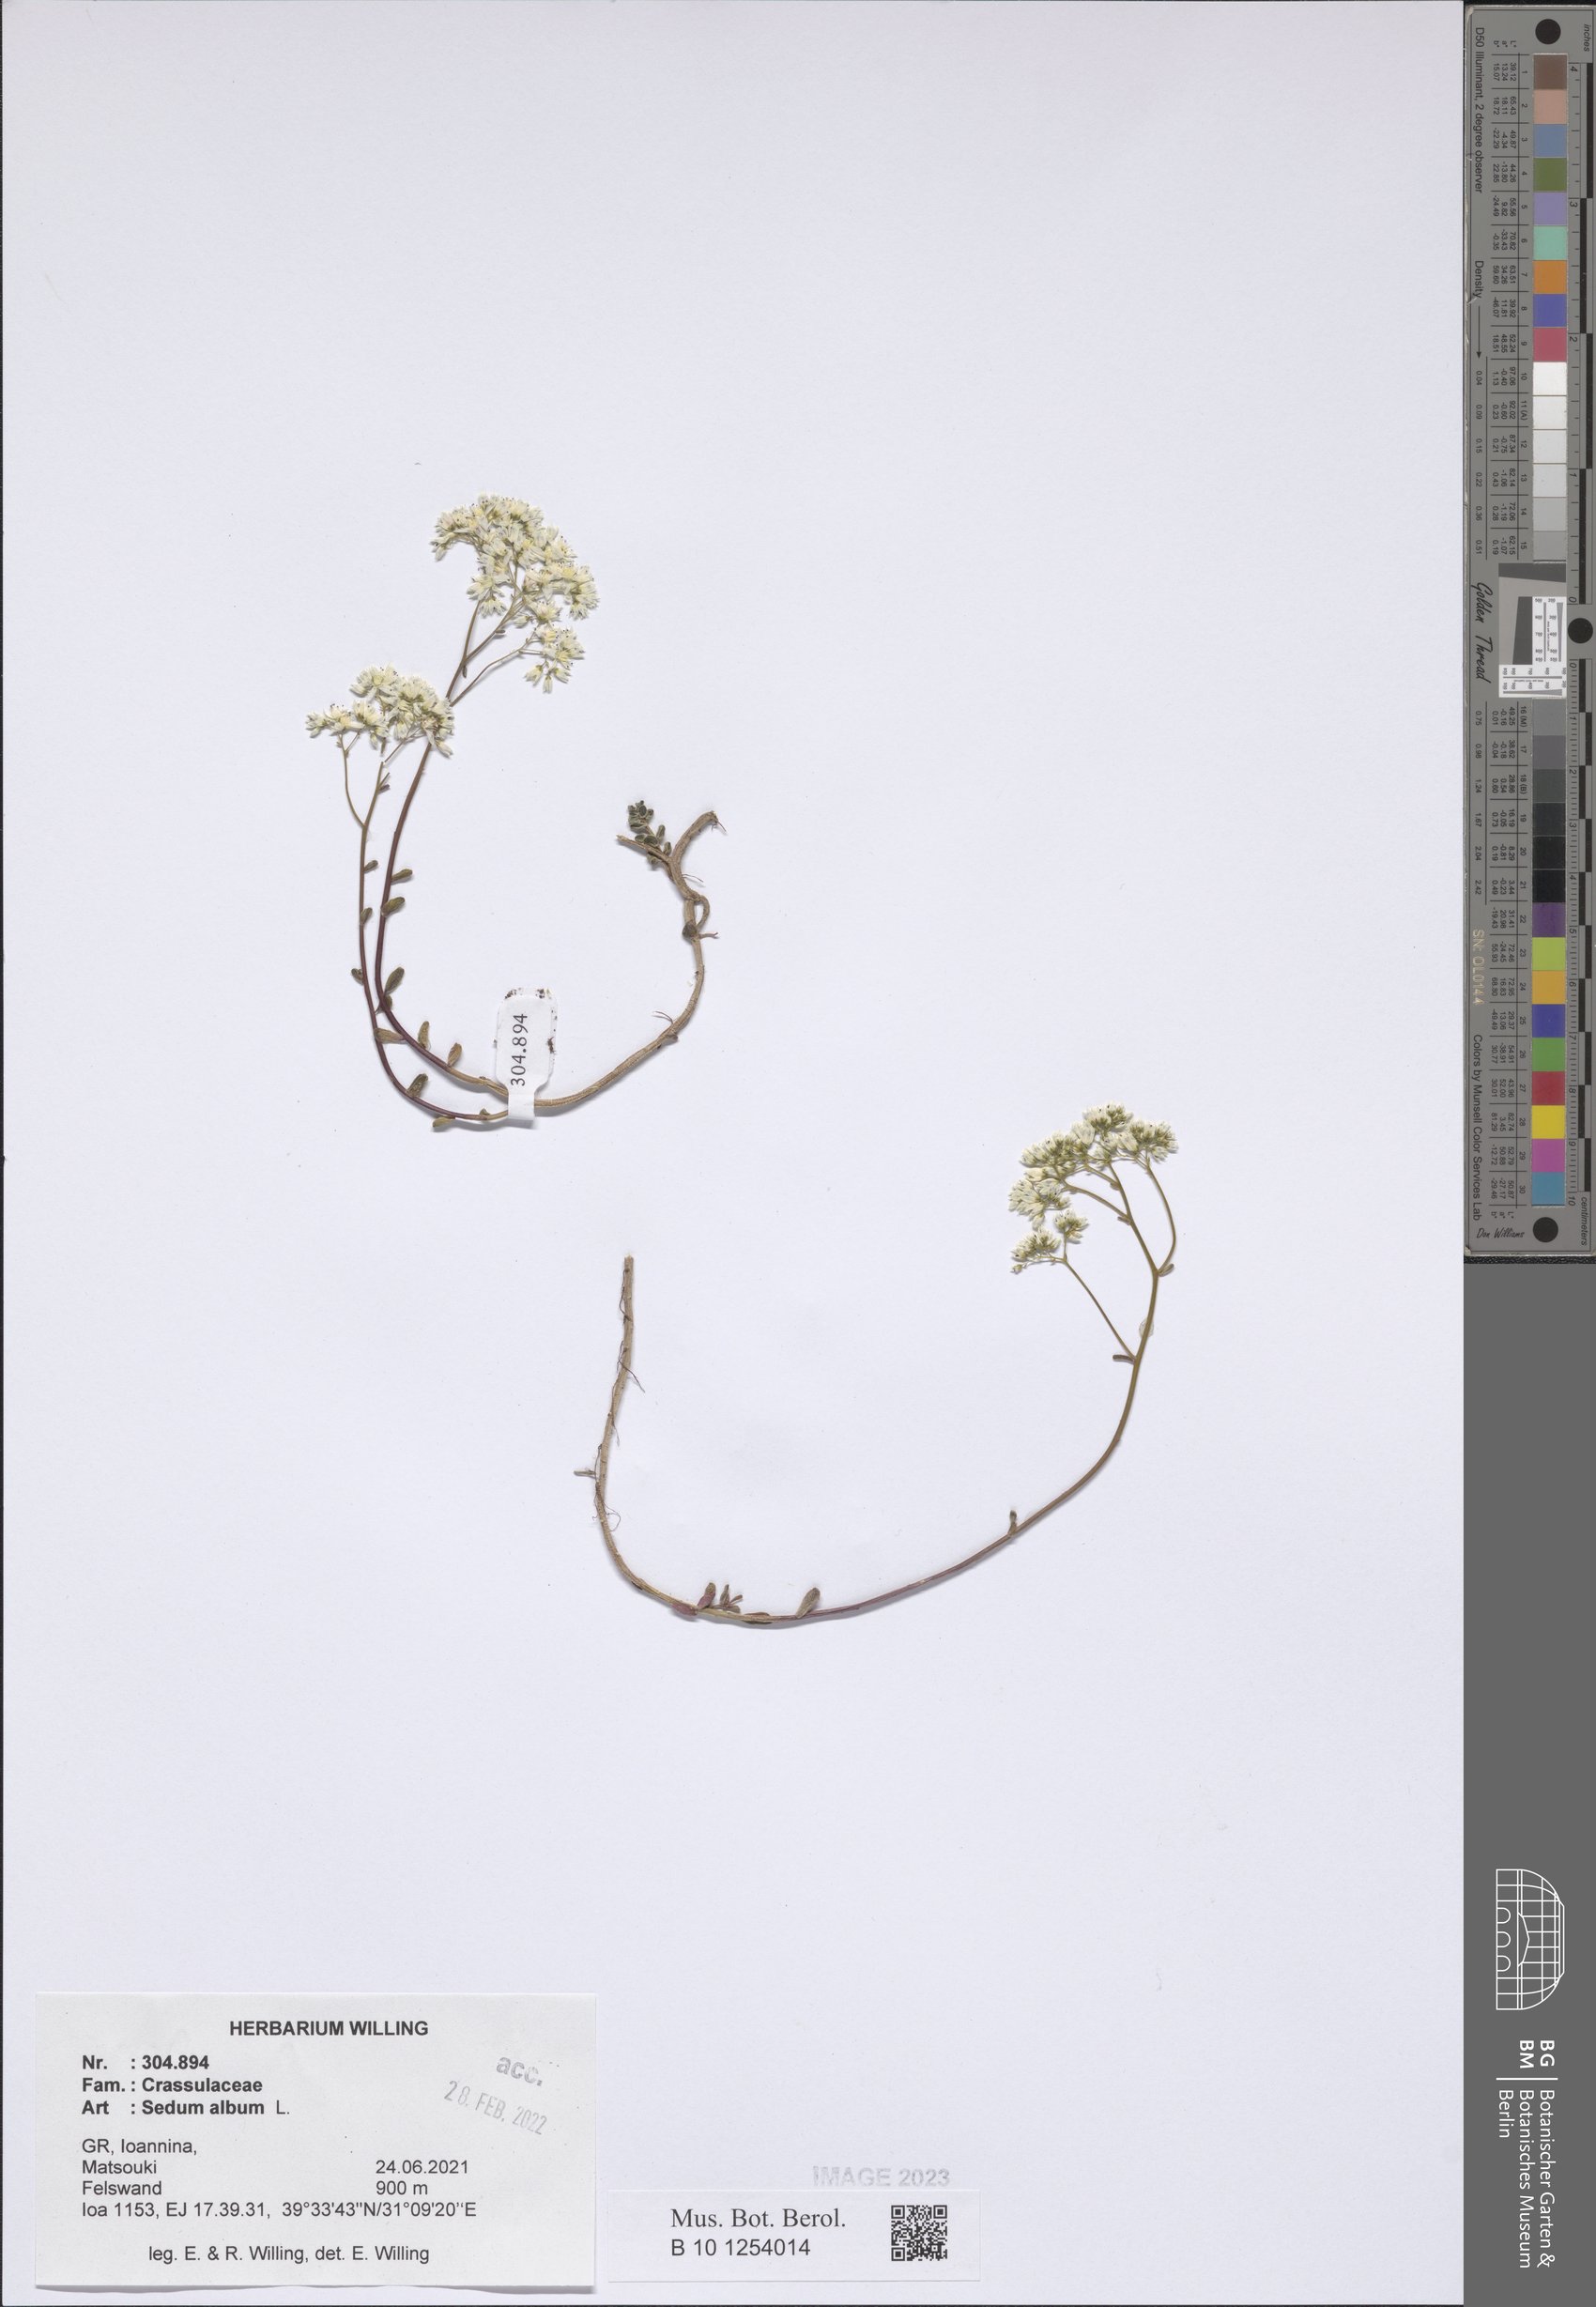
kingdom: Plantae
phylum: Tracheophyta
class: Magnoliopsida
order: Saxifragales
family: Crassulaceae
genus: Sedum
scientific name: Sedum album
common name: White stonecrop
